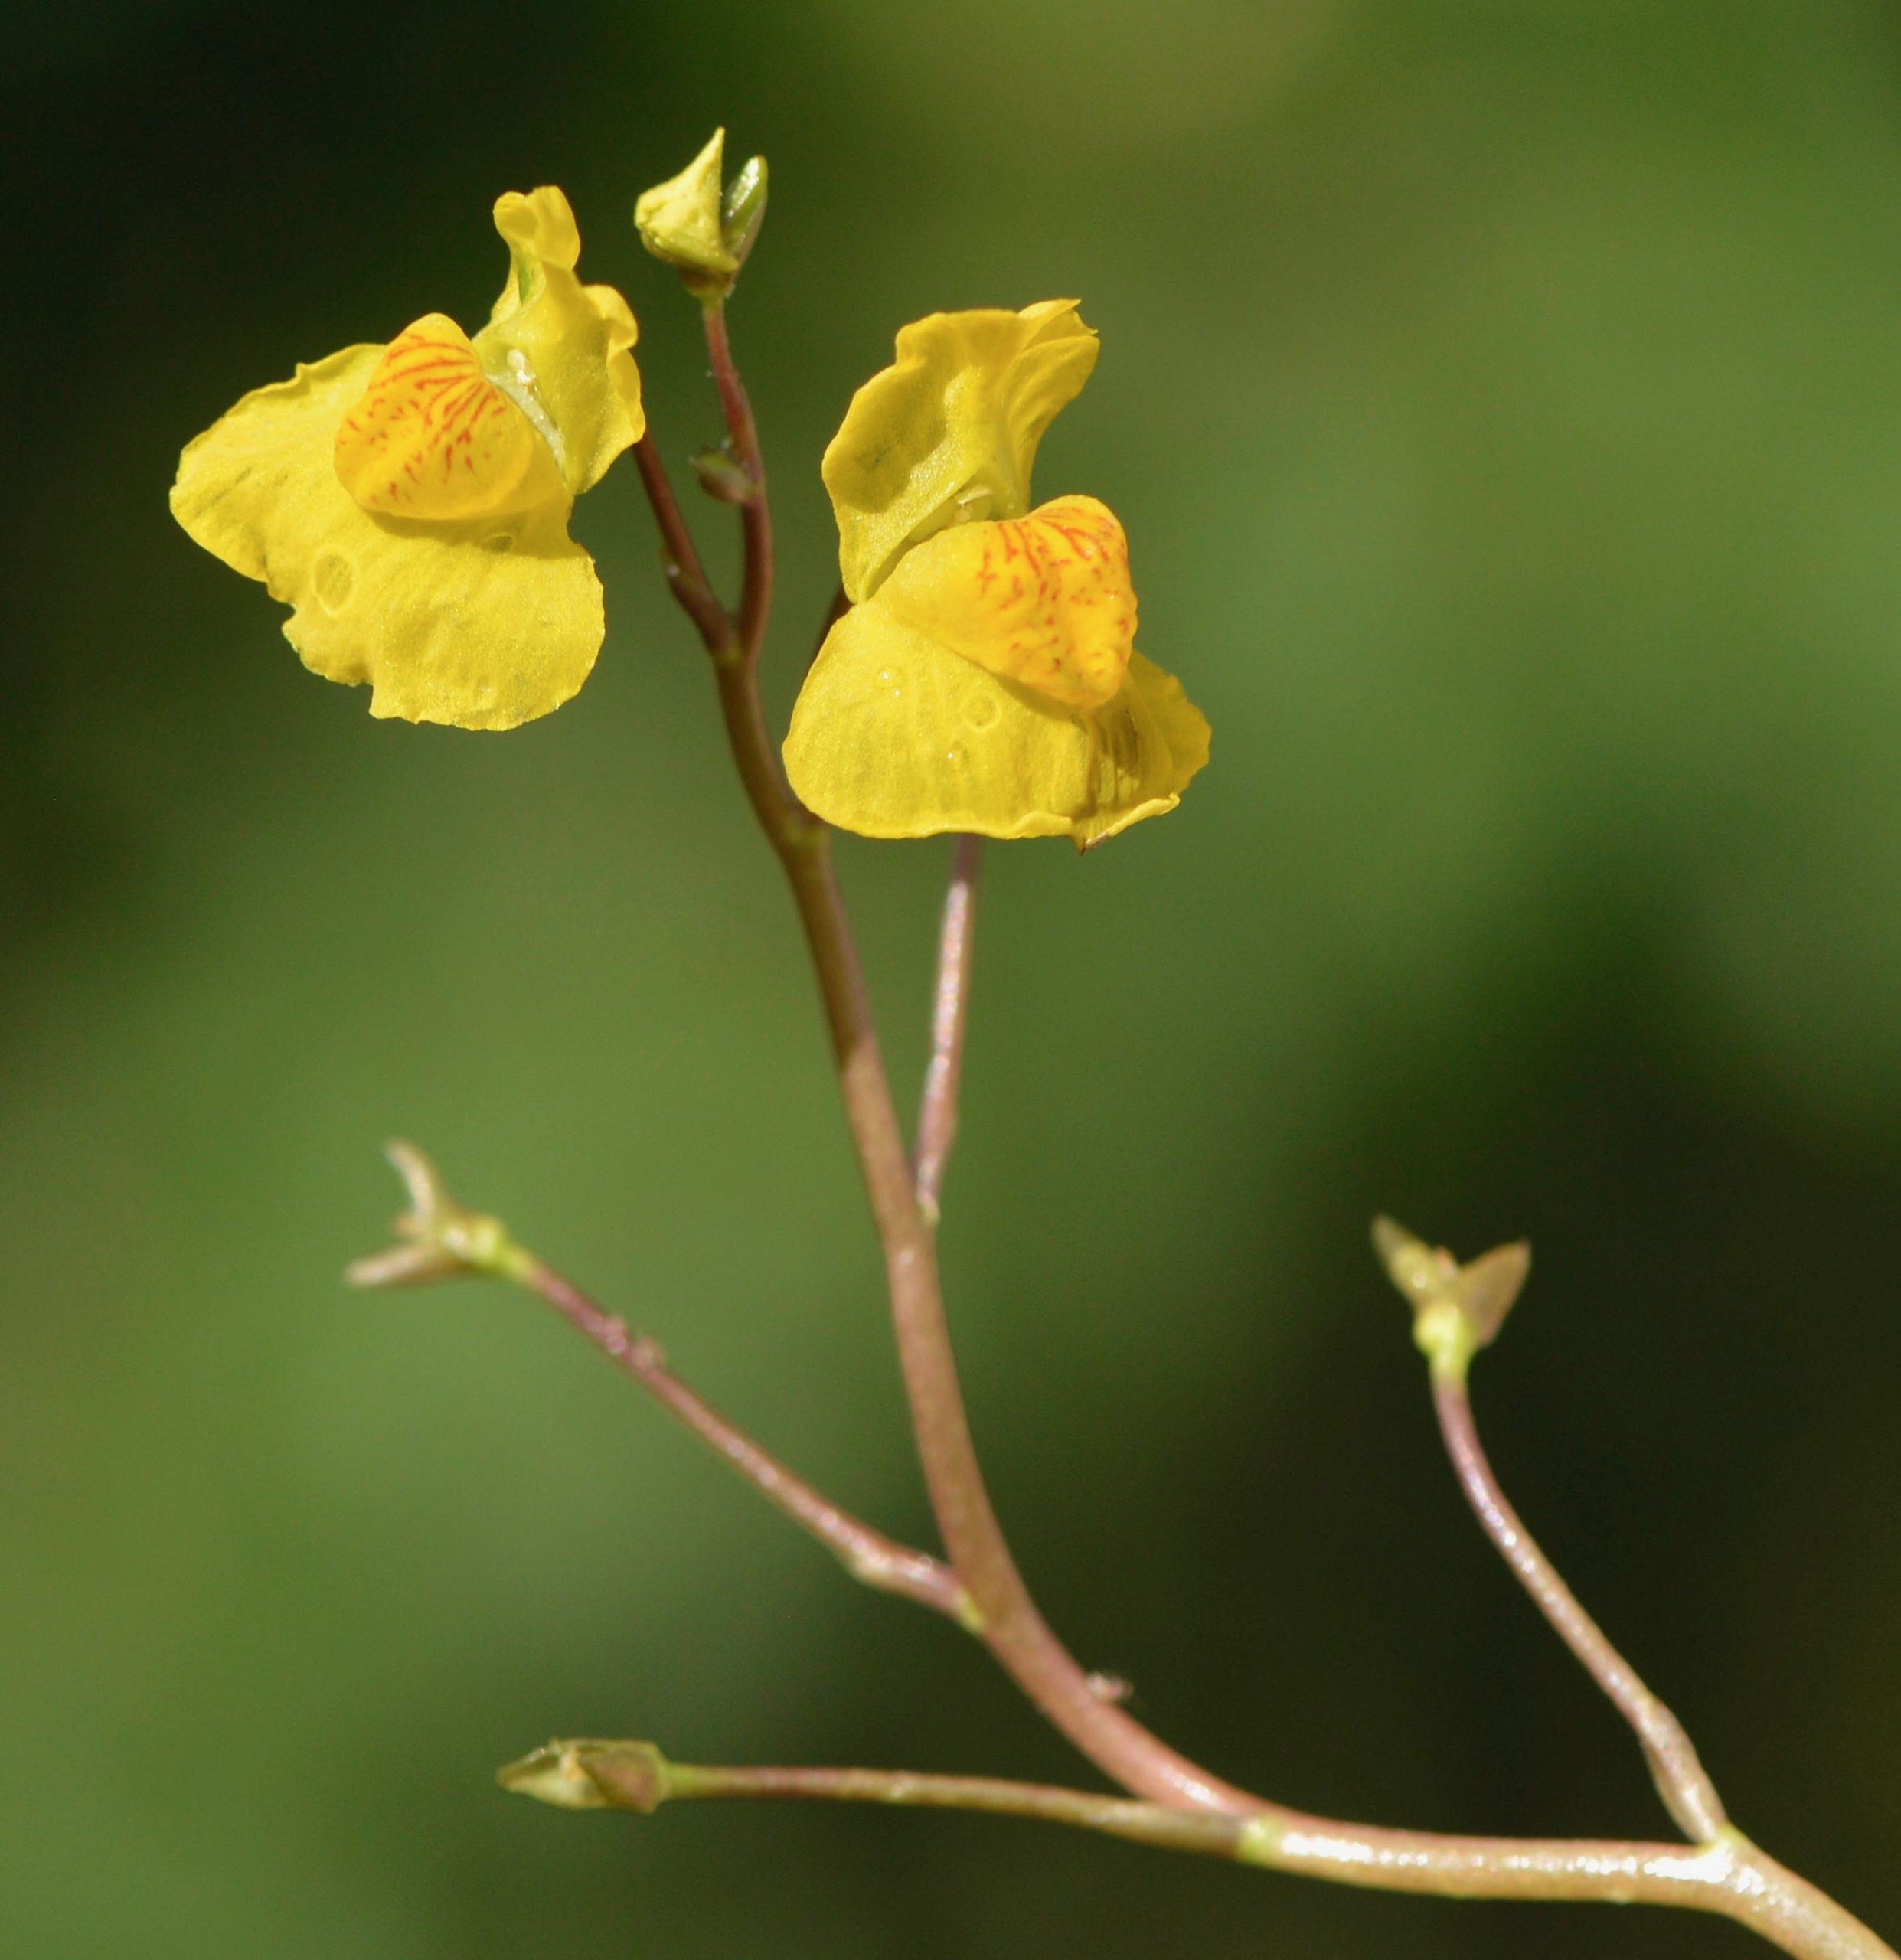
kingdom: Plantae
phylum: Tracheophyta
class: Magnoliopsida
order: Lamiales
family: Lentibulariaceae
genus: Utricularia
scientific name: Utricularia australis
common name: Slank blærerod
